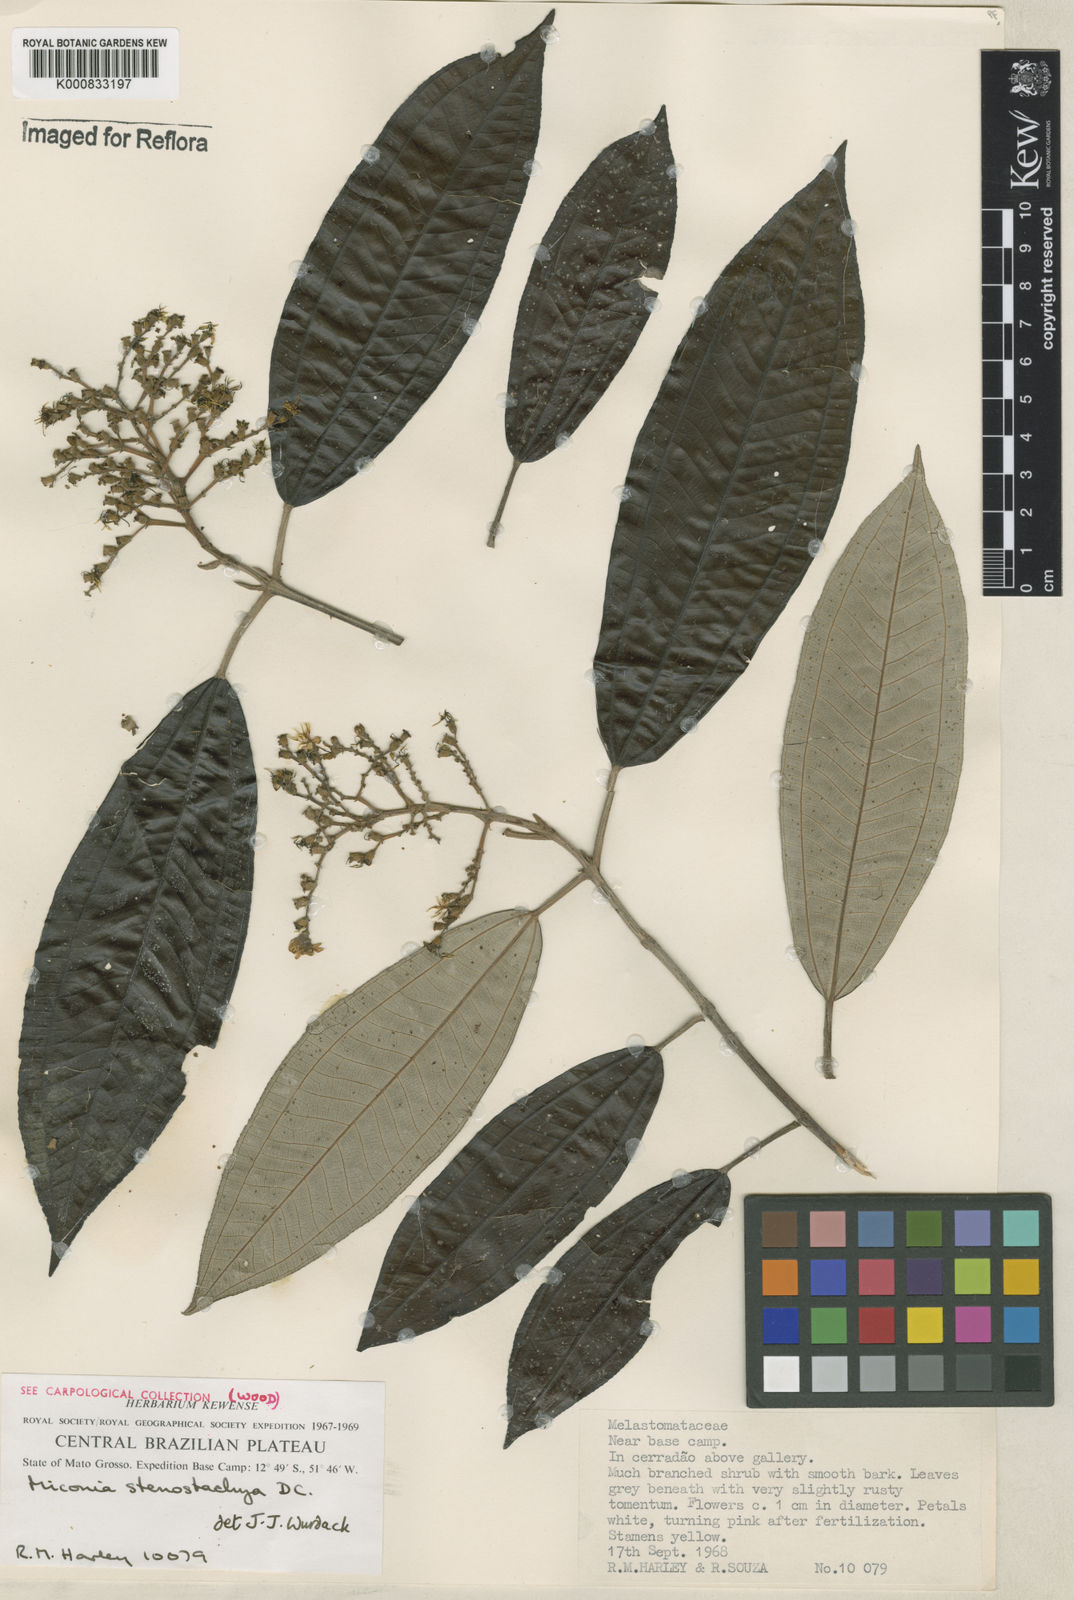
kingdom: Plantae
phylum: Tracheophyta
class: Magnoliopsida
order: Myrtales
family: Melastomataceae
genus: Miconia
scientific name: Miconia stenostachya
